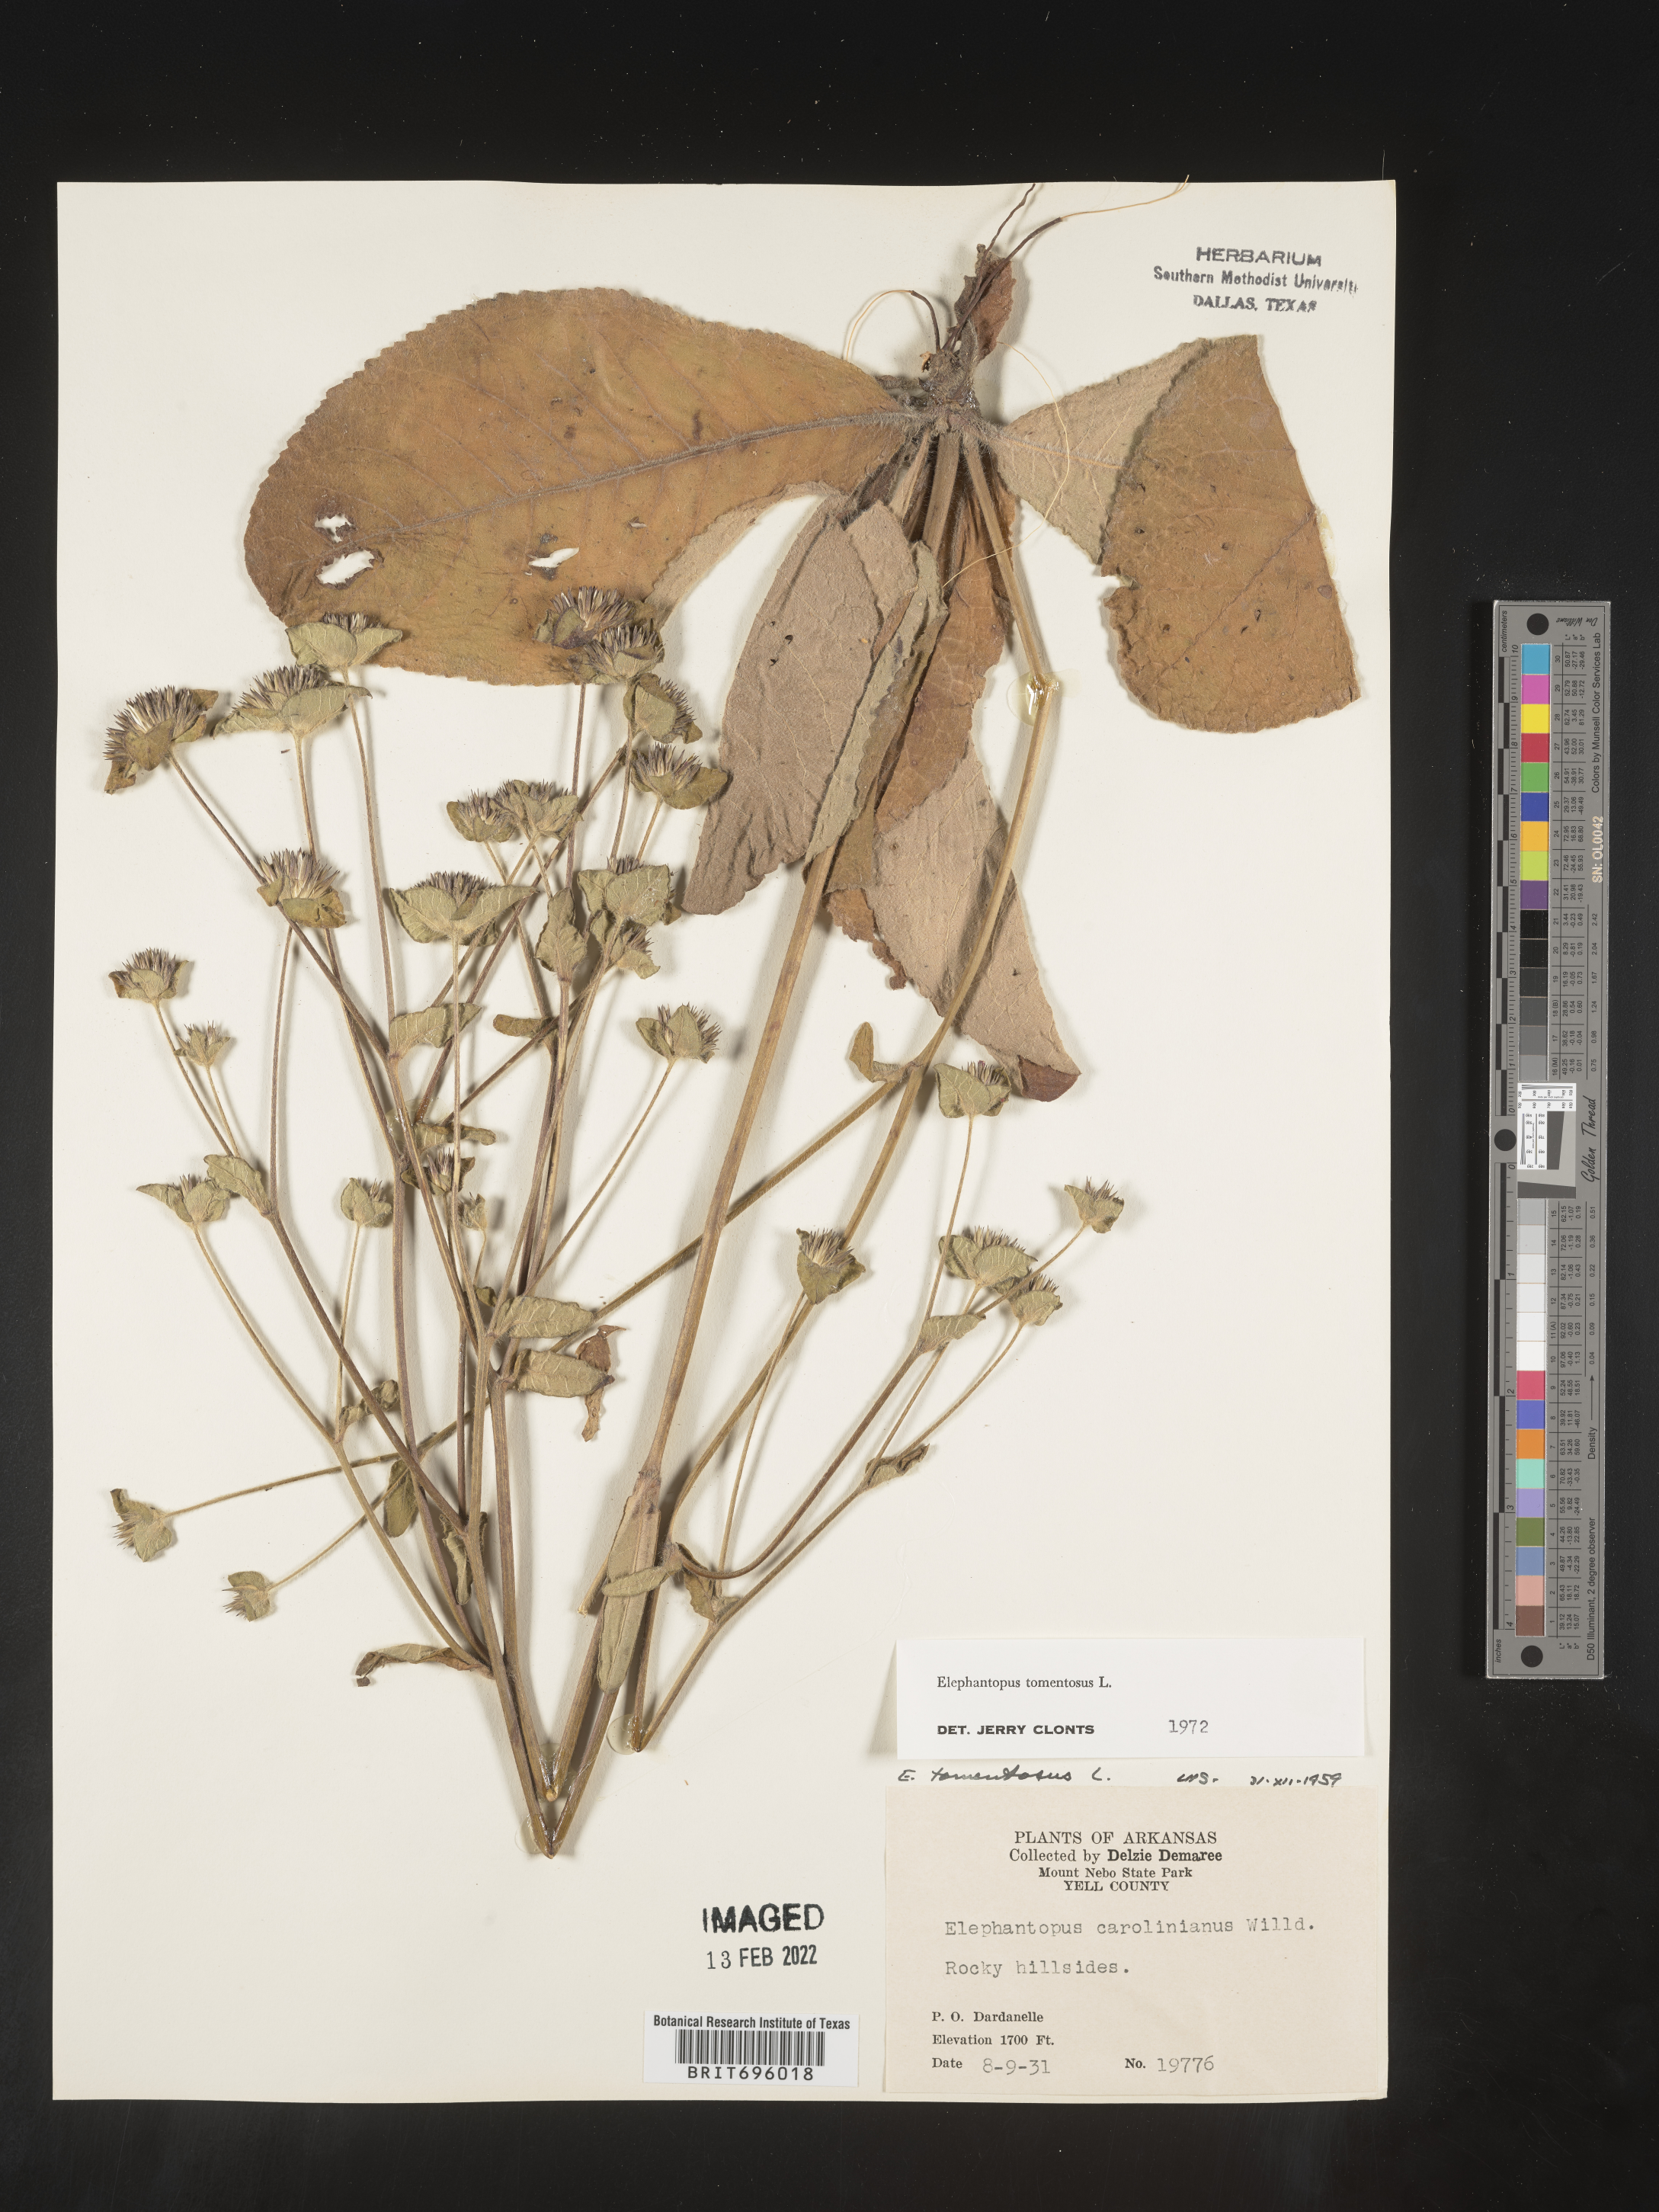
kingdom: Plantae
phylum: Tracheophyta
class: Magnoliopsida
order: Asterales
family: Asteraceae
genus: Elephantopus
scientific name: Elephantopus tomentosus
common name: Tobacco-weed
